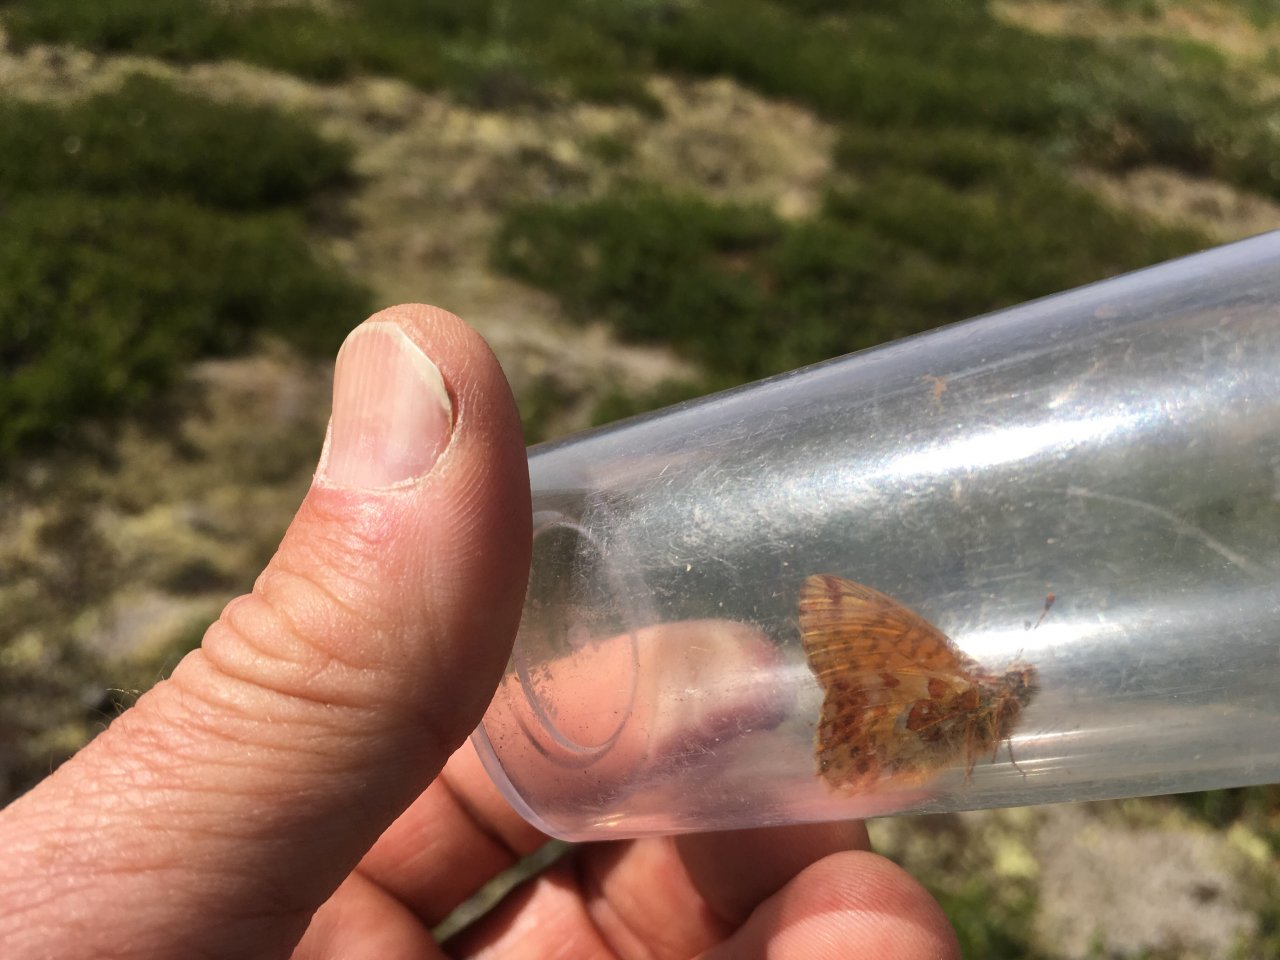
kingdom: Animalia
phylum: Arthropoda
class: Insecta
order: Lepidoptera
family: Nymphalidae
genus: Boloria
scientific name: Boloria alaskensis
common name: Alaskan Fritillary
